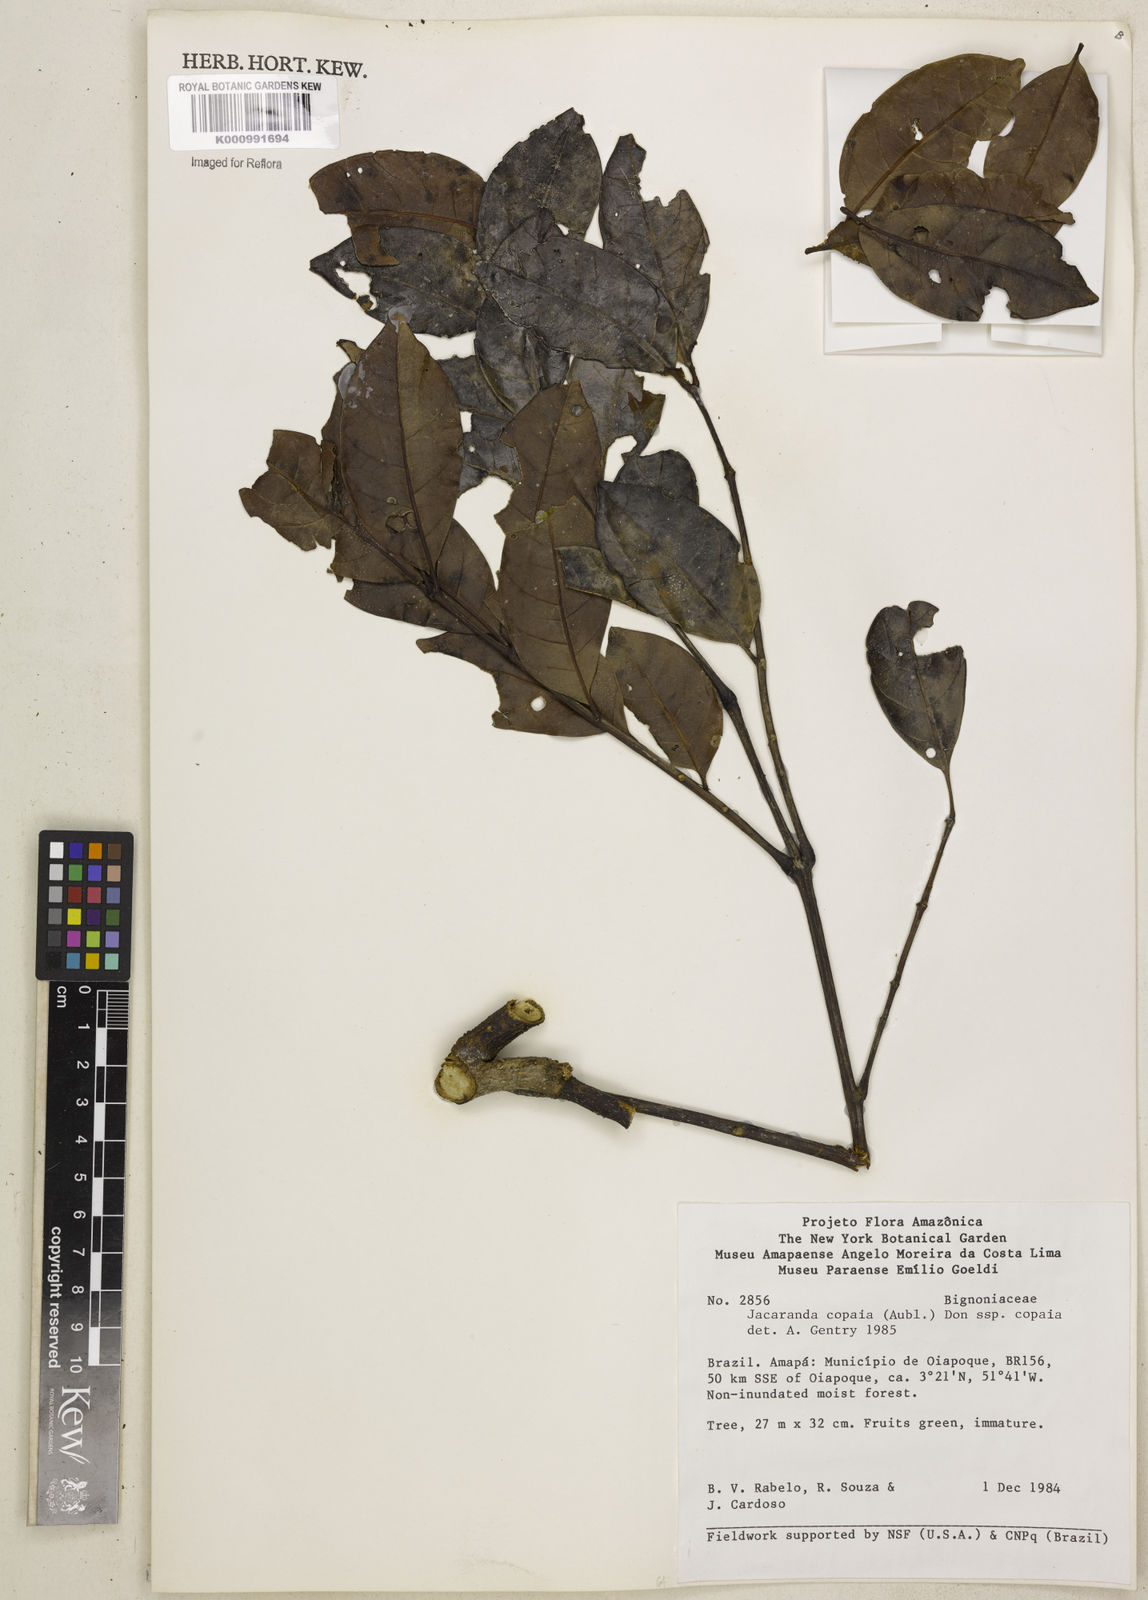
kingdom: Plantae
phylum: Tracheophyta
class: Magnoliopsida
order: Lamiales
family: Bignoniaceae
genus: Jacaranda
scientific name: Jacaranda copaia
